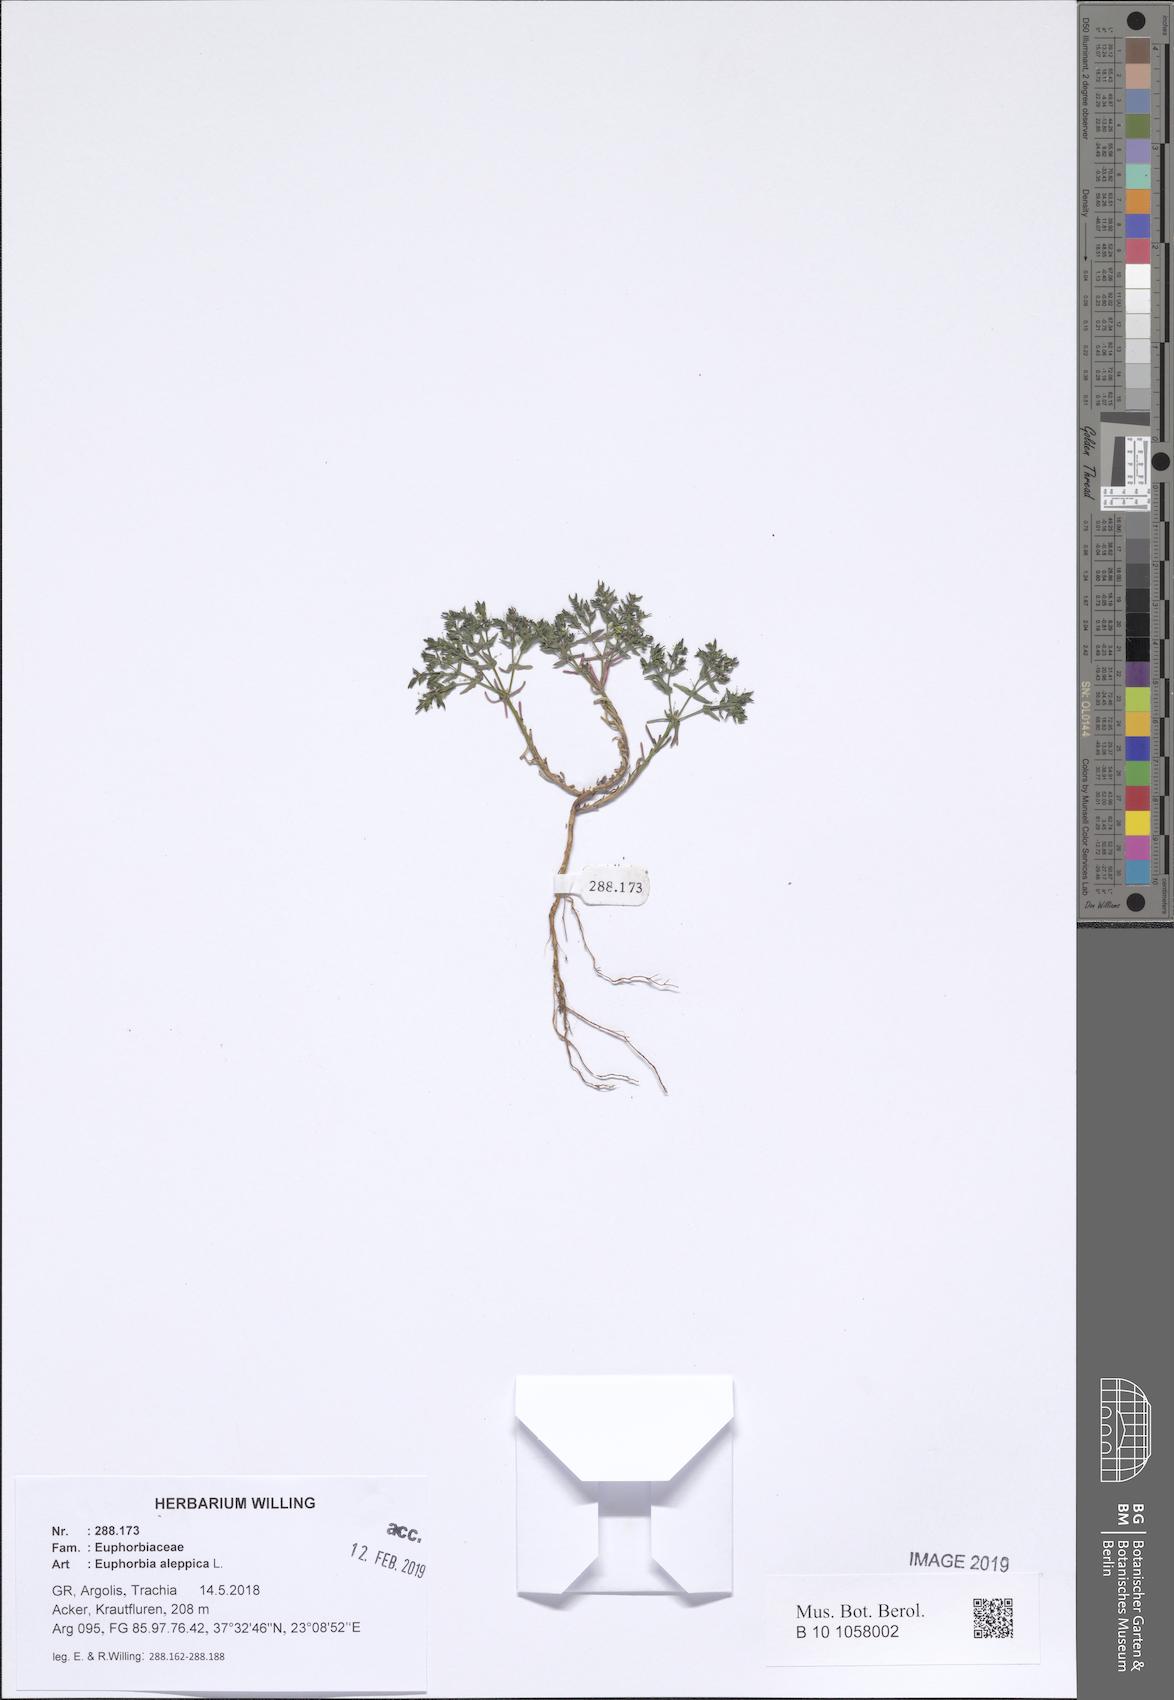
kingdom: Plantae
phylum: Tracheophyta
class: Magnoliopsida
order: Malpighiales
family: Euphorbiaceae
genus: Euphorbia
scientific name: Euphorbia exigua
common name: Dwarf spurge
